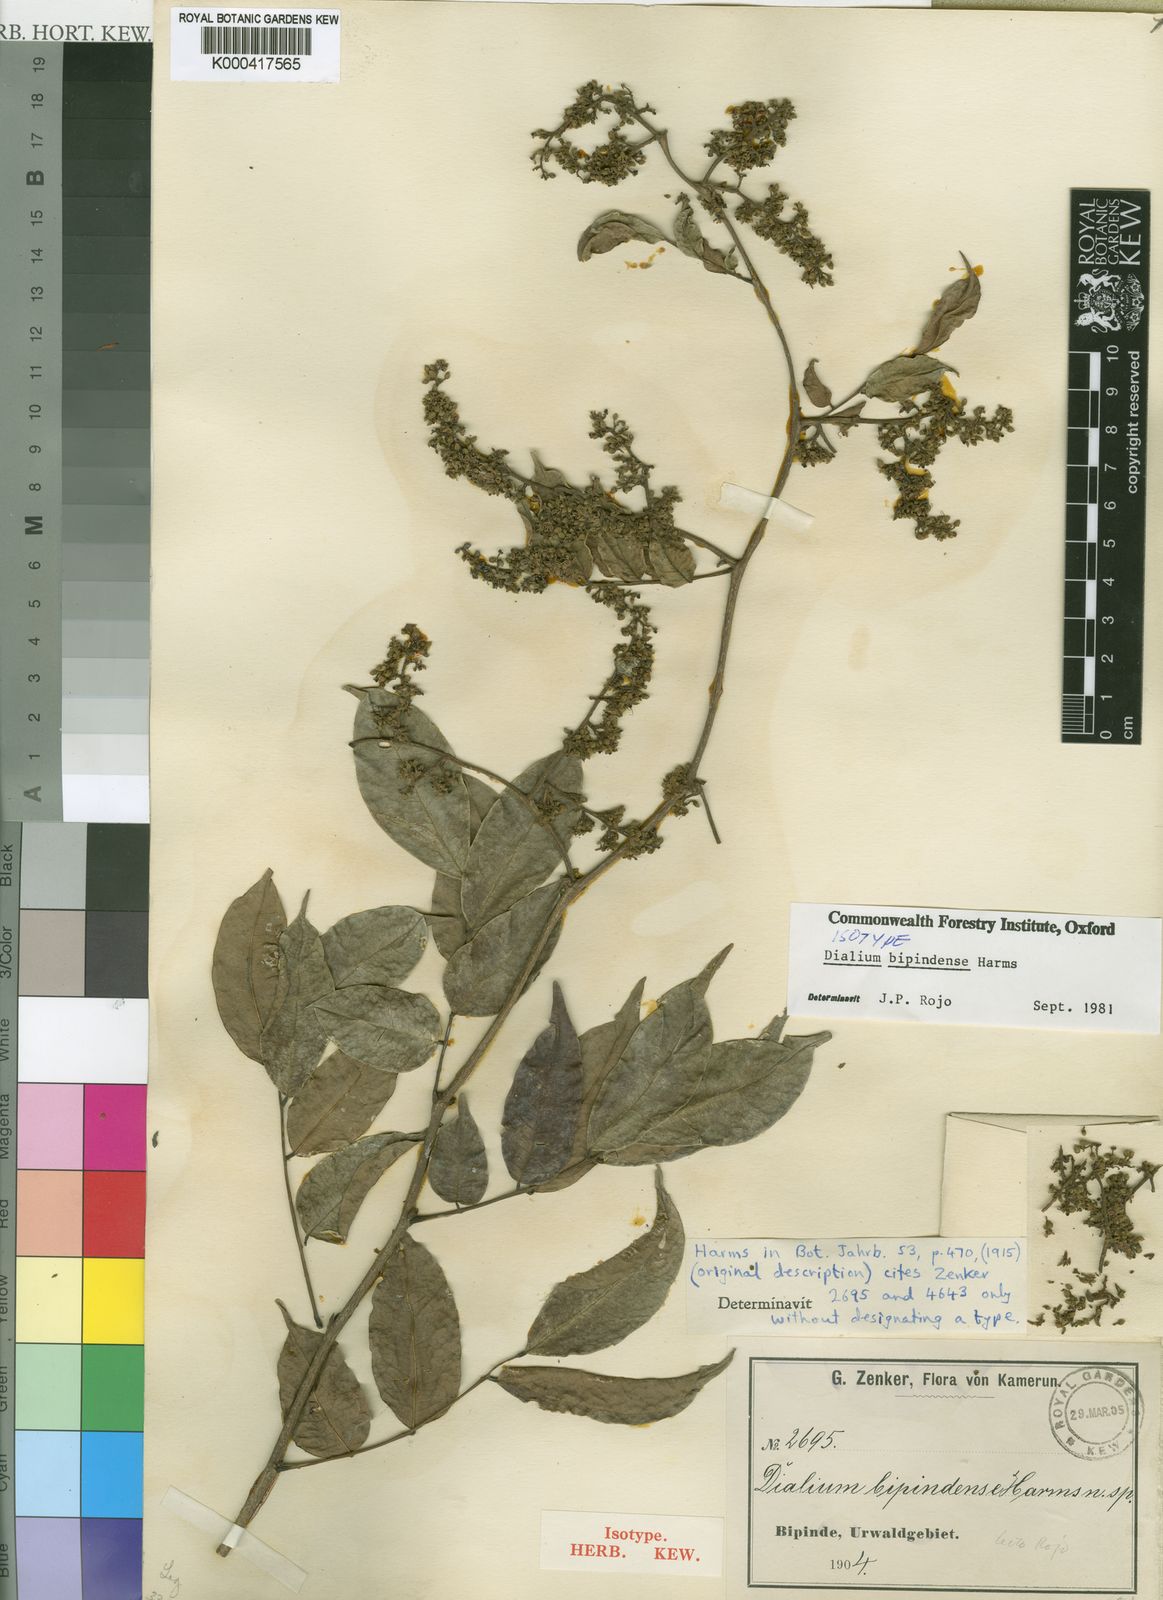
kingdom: Plantae
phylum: Tracheophyta
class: Magnoliopsida
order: Fabales
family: Fabaceae
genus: Dialium
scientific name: Dialium bipindense
